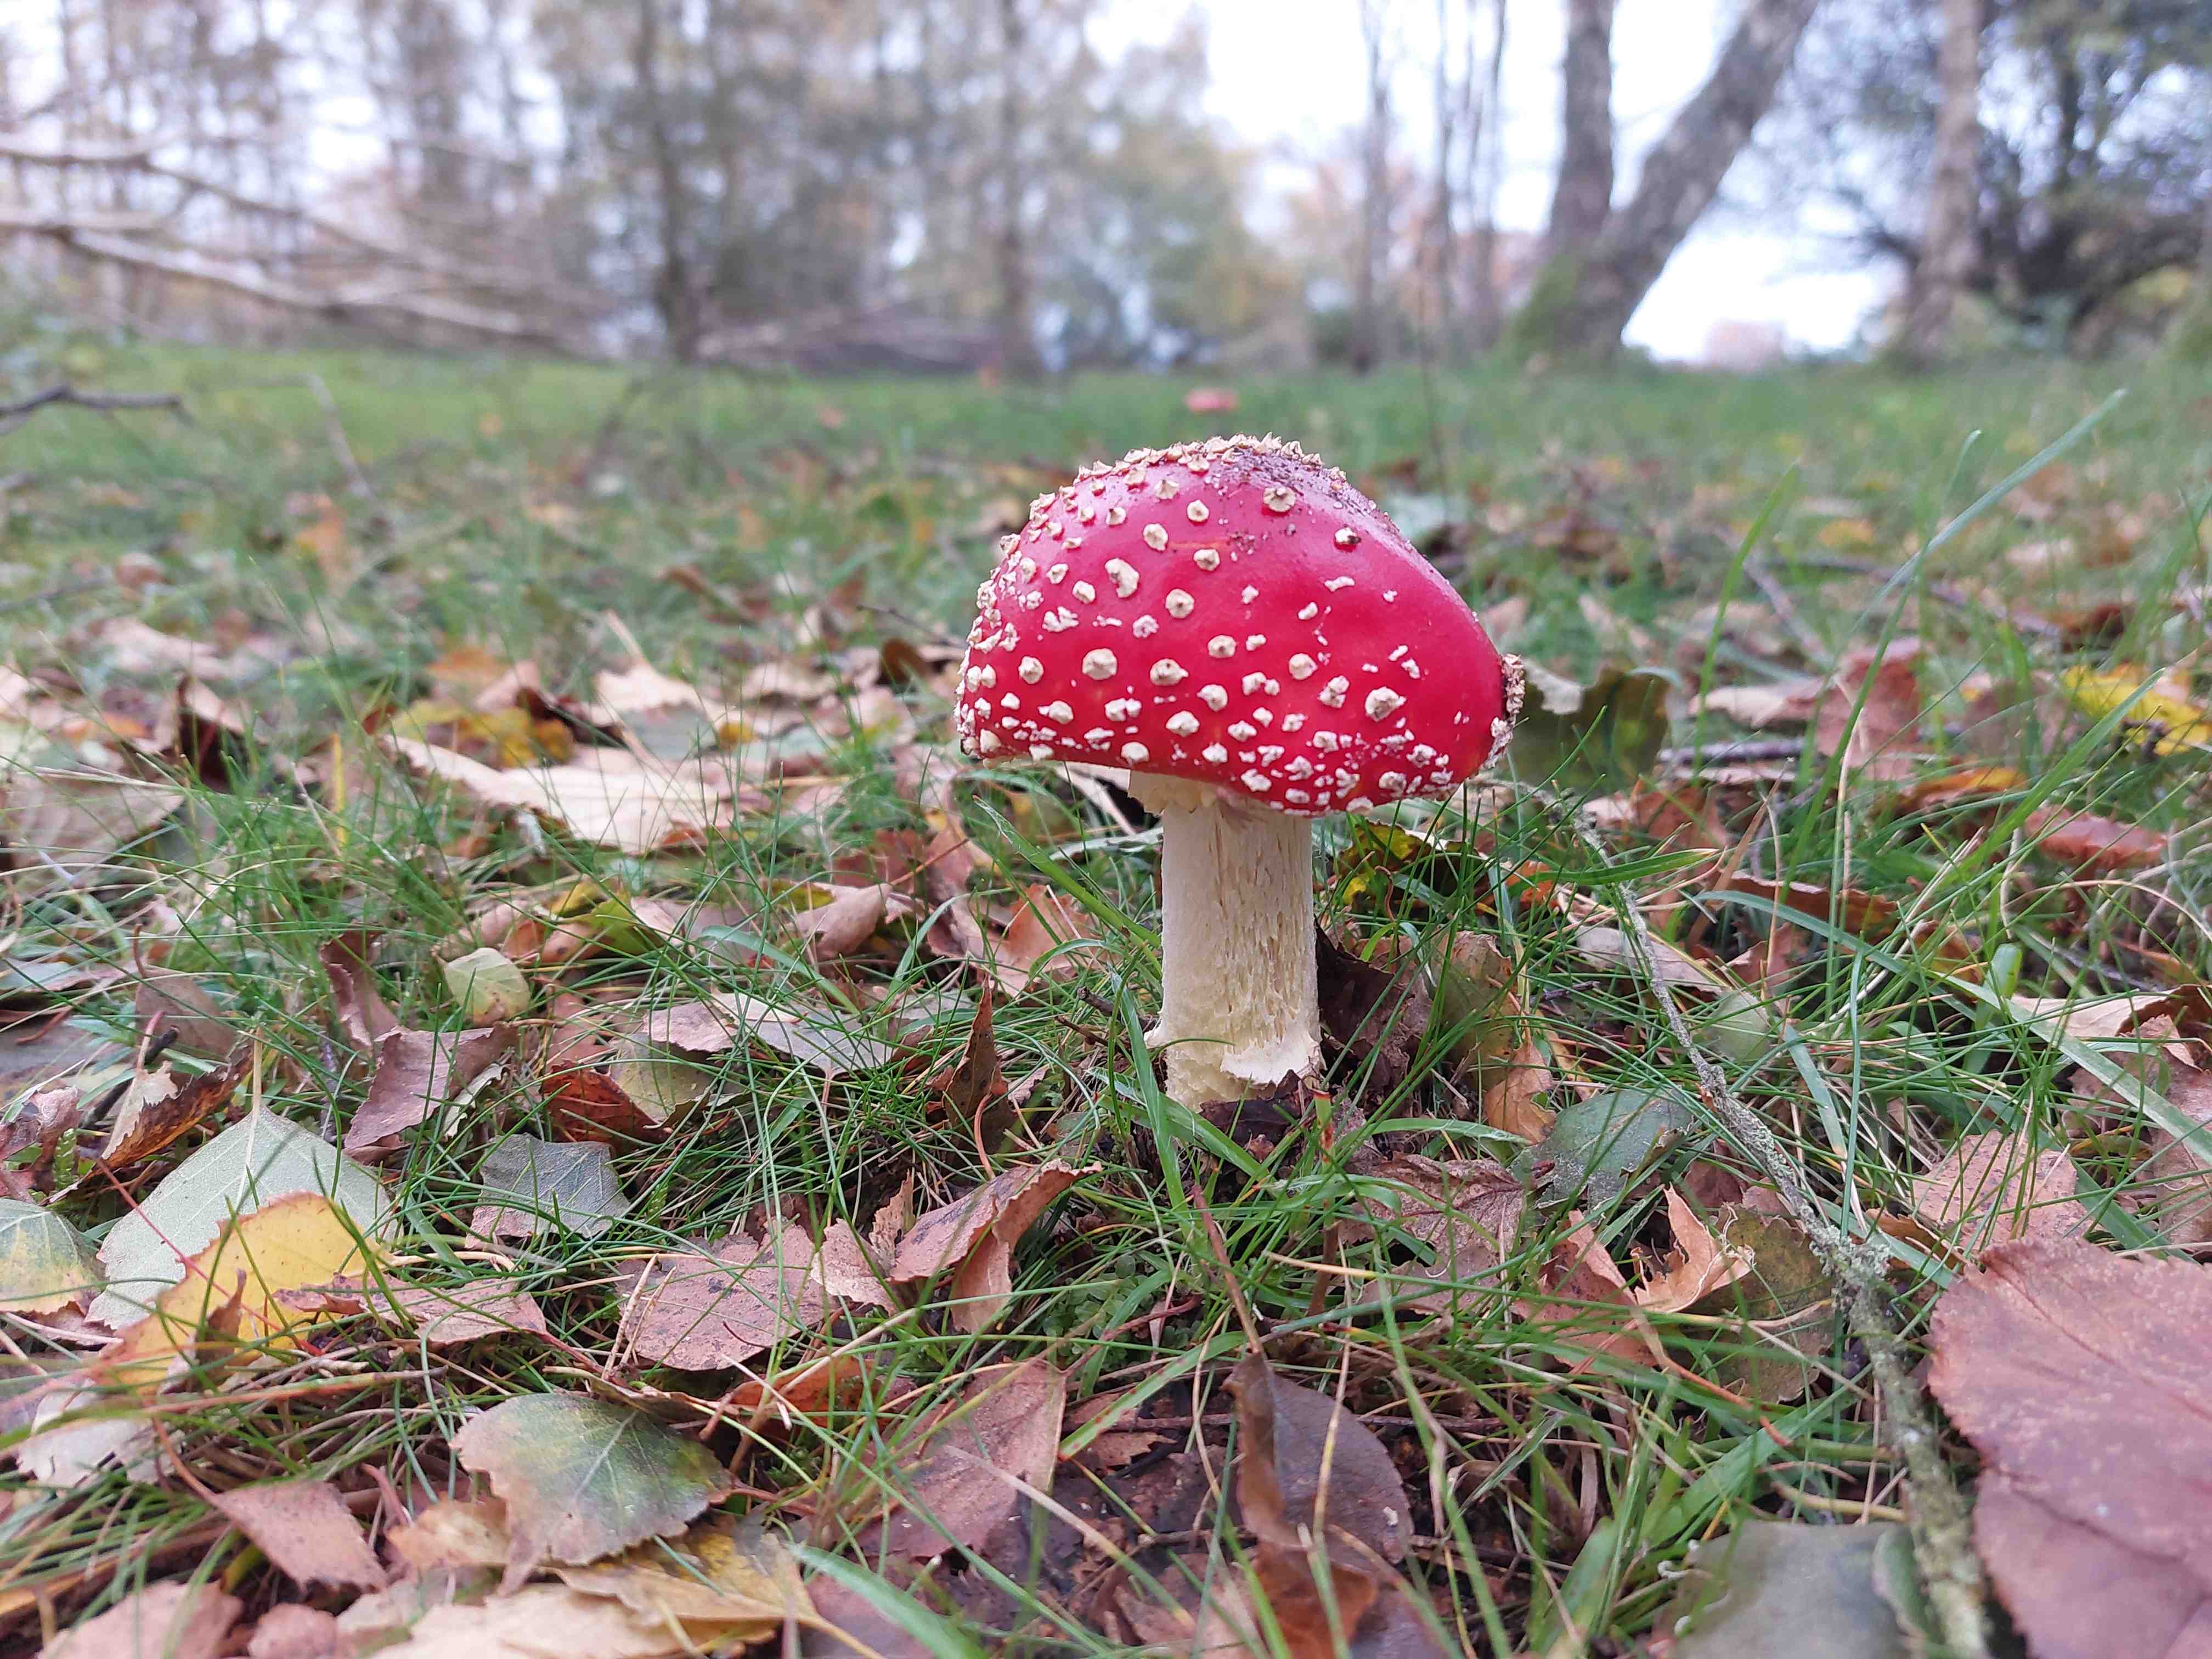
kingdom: Fungi
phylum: Basidiomycota
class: Agaricomycetes
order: Agaricales
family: Amanitaceae
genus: Amanita
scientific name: Amanita muscaria
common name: rød fluesvamp
